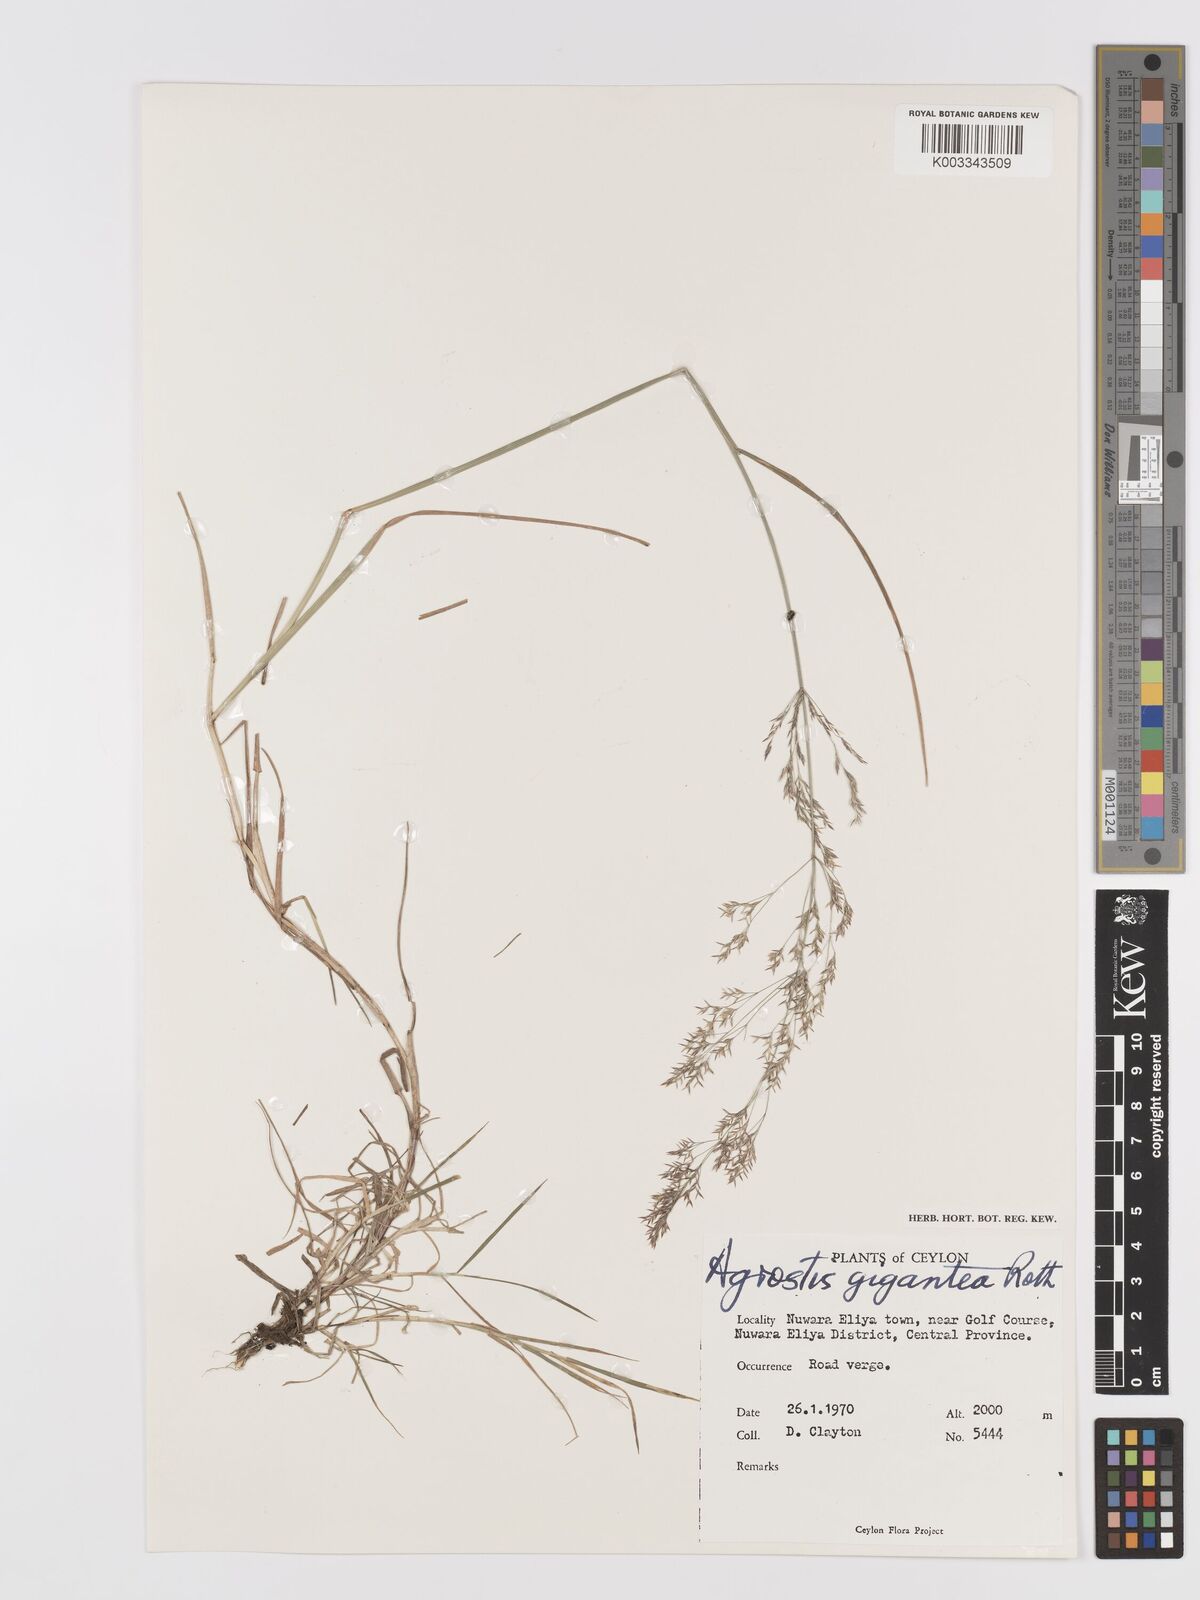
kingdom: Plantae
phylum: Tracheophyta
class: Liliopsida
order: Poales
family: Poaceae
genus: Agrostis
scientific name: Agrostis gigantea
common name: Black bent
